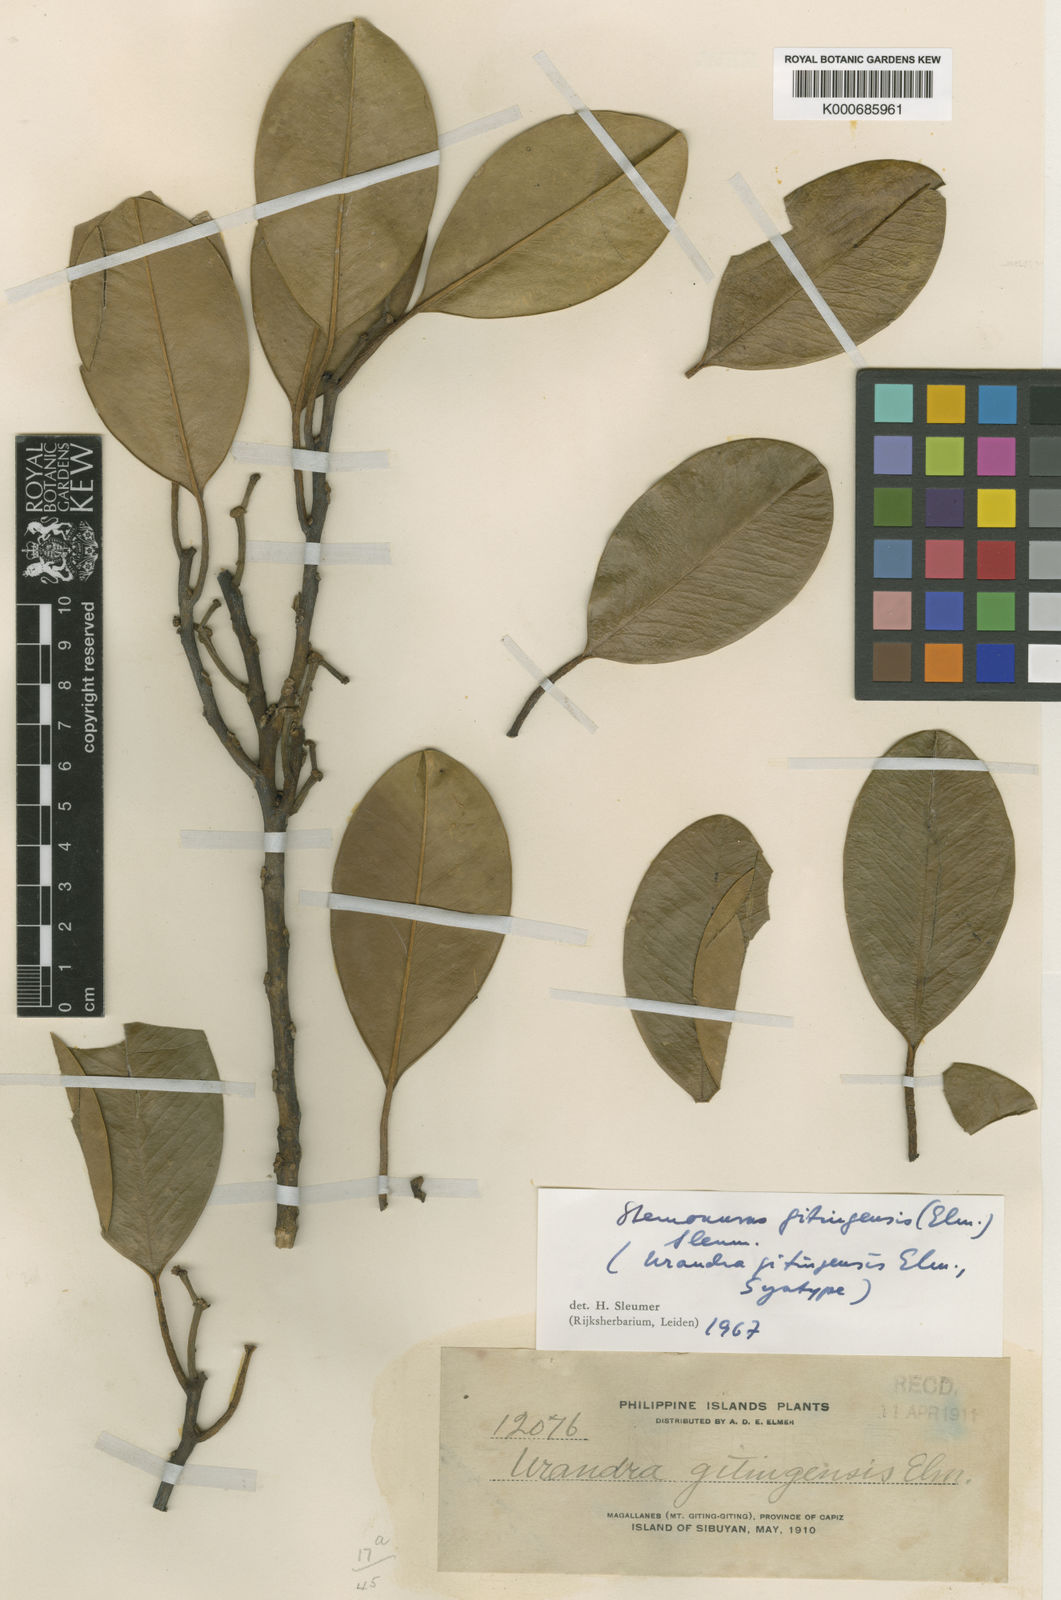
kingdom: Plantae
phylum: Tracheophyta
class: Magnoliopsida
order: Cardiopteridales
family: Stemonuraceae
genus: Stemonurus
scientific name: Stemonurus gitingensis
